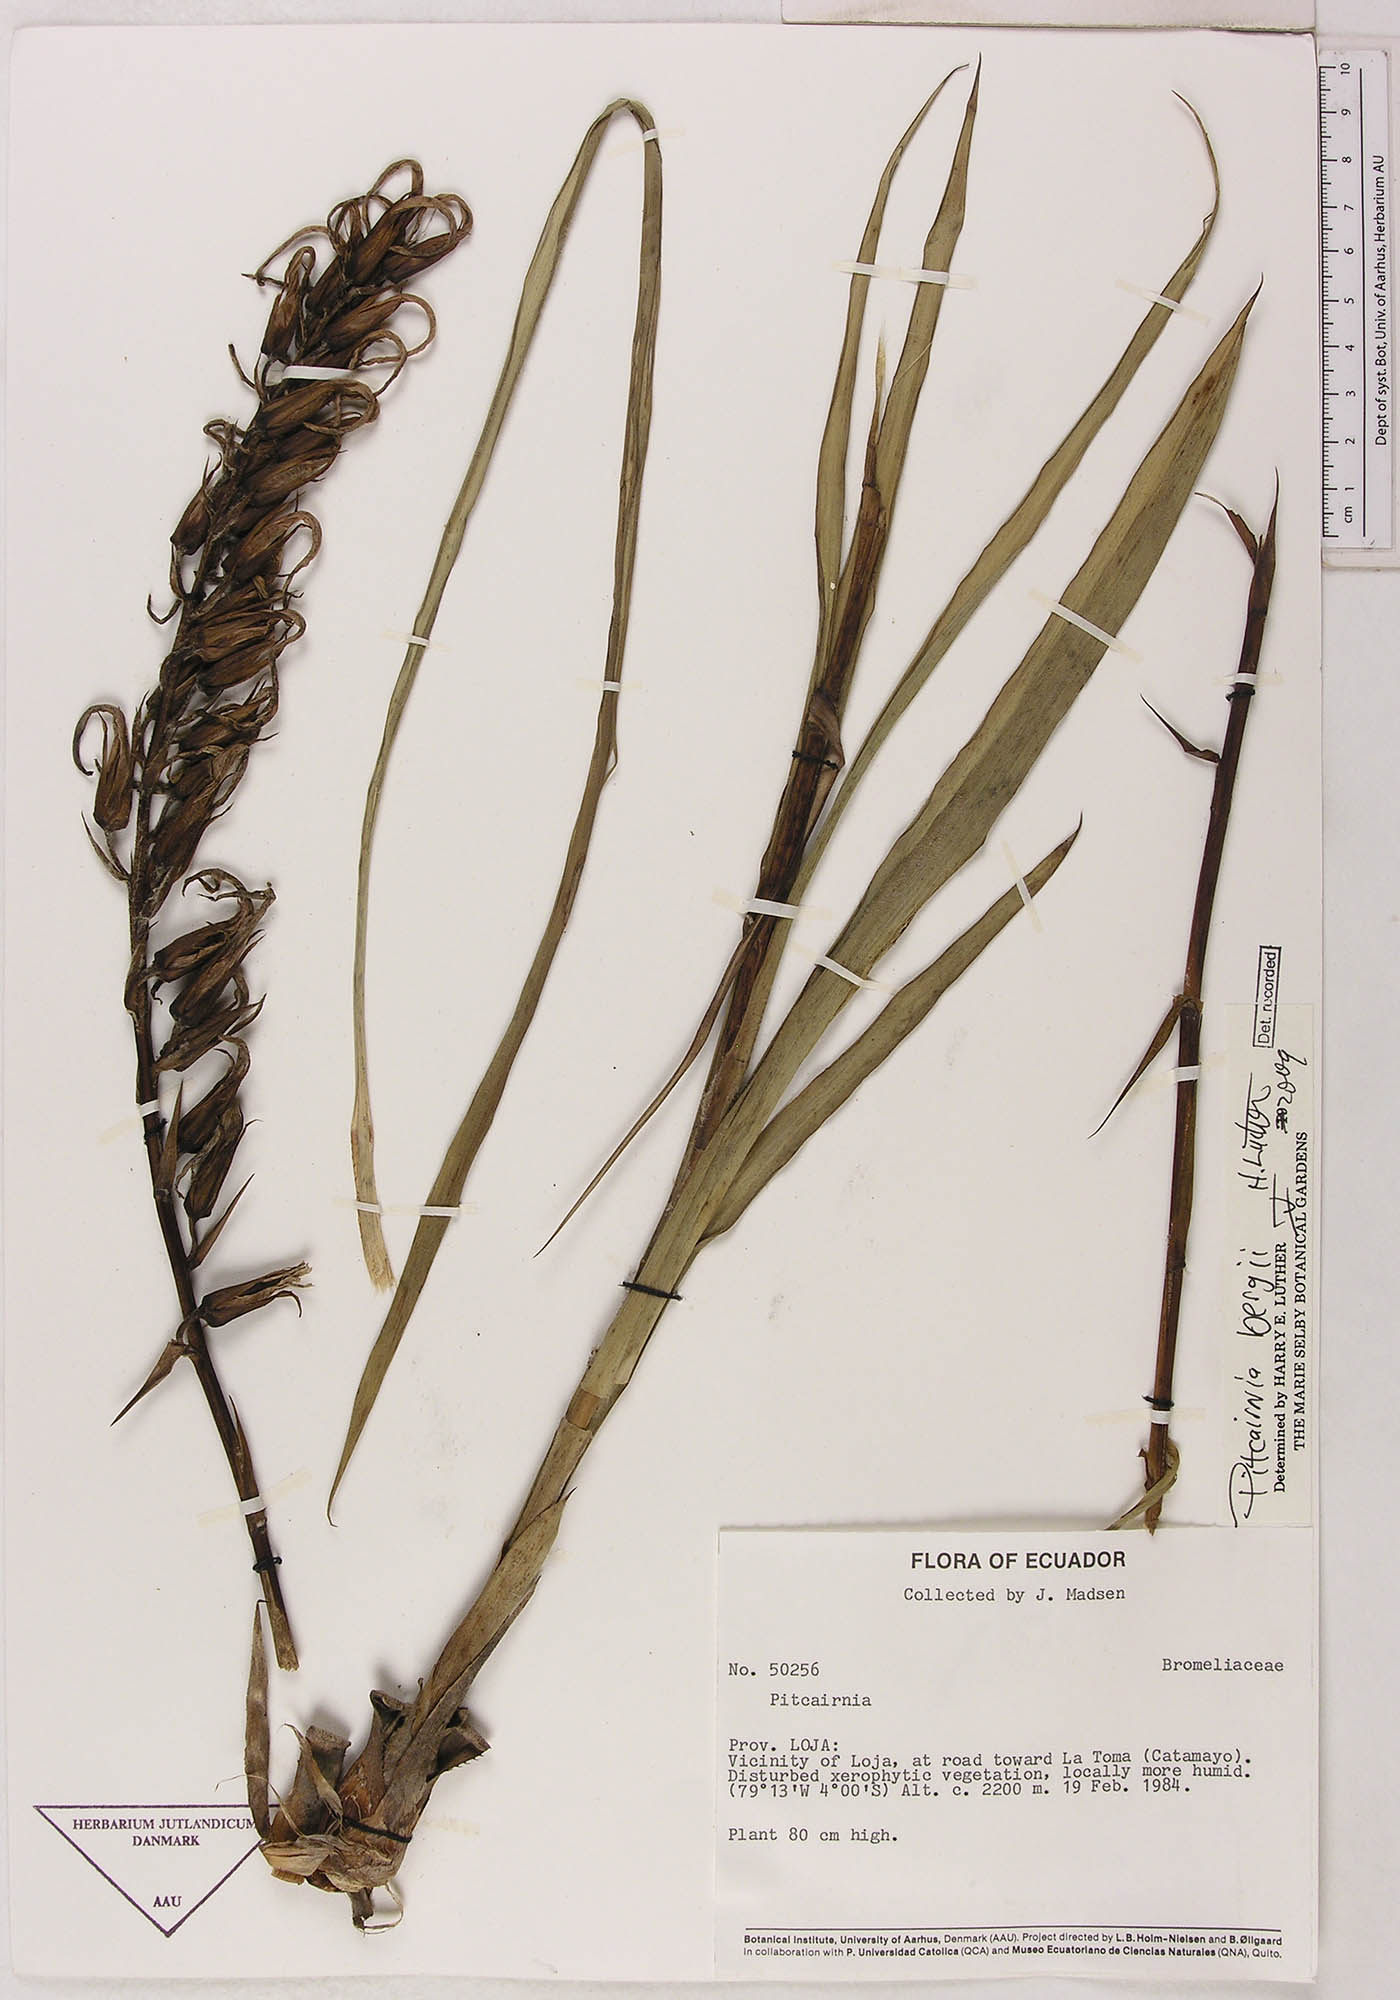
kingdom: Plantae
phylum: Tracheophyta
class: Liliopsida
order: Poales
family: Bromeliaceae
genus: Pitcairnia
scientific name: Pitcairnia bergii
